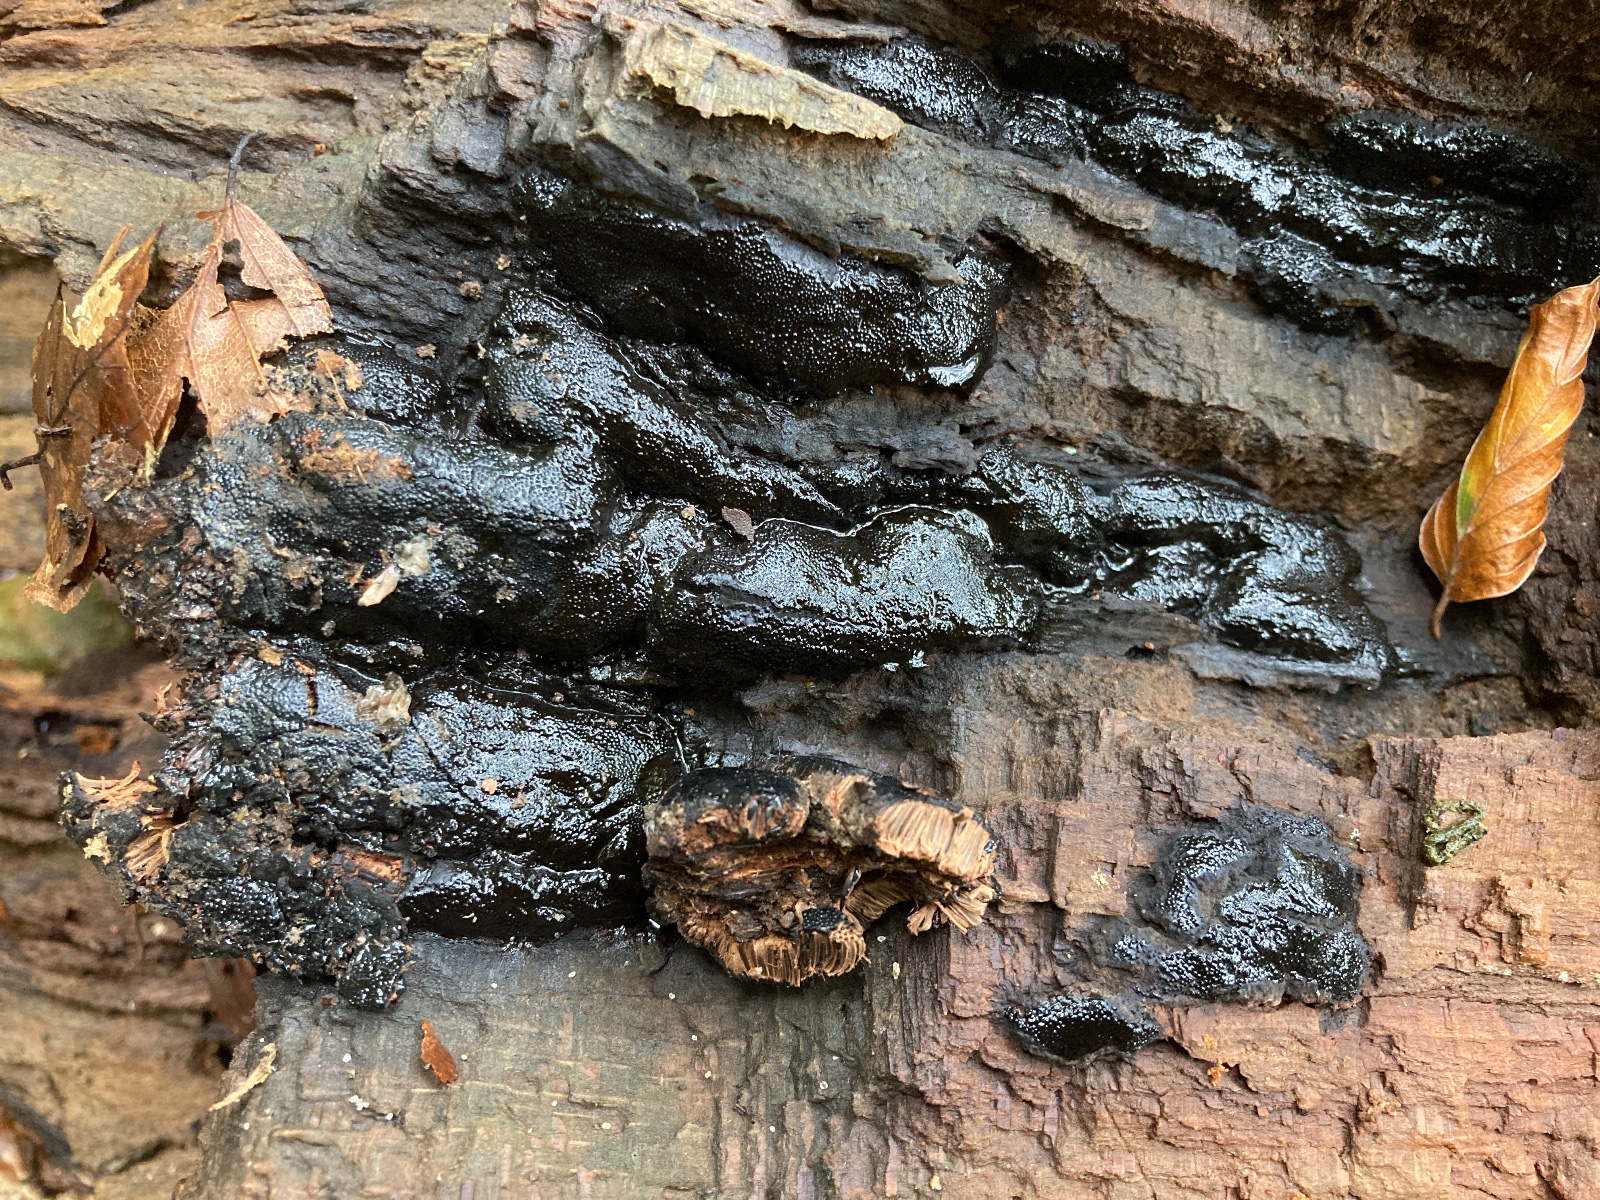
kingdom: Fungi
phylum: Ascomycota
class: Sordariomycetes
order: Boliniales
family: Boliniaceae
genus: Camarops
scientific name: Camarops polysperma
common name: elle-kulsnegl
